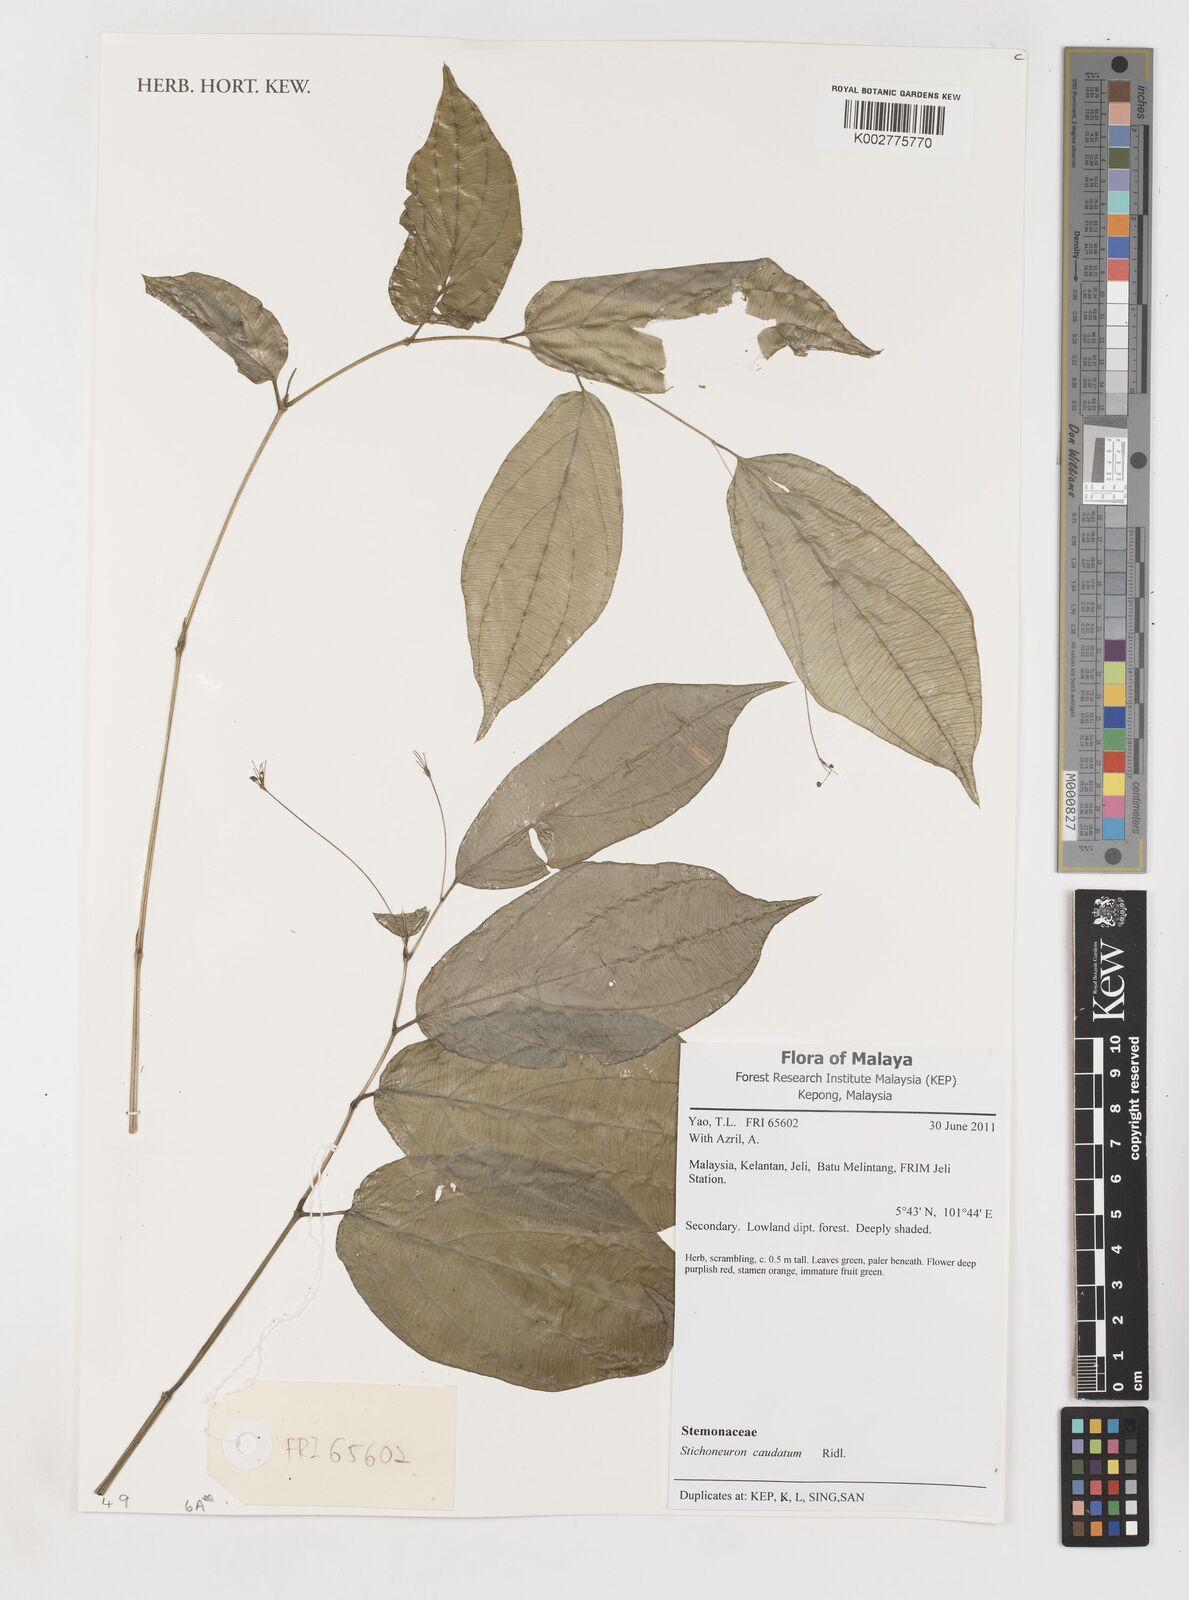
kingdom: Plantae
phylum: Tracheophyta
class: Liliopsida
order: Pandanales
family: Stemonaceae
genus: Stichoneuron
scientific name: Stichoneuron caudatum
